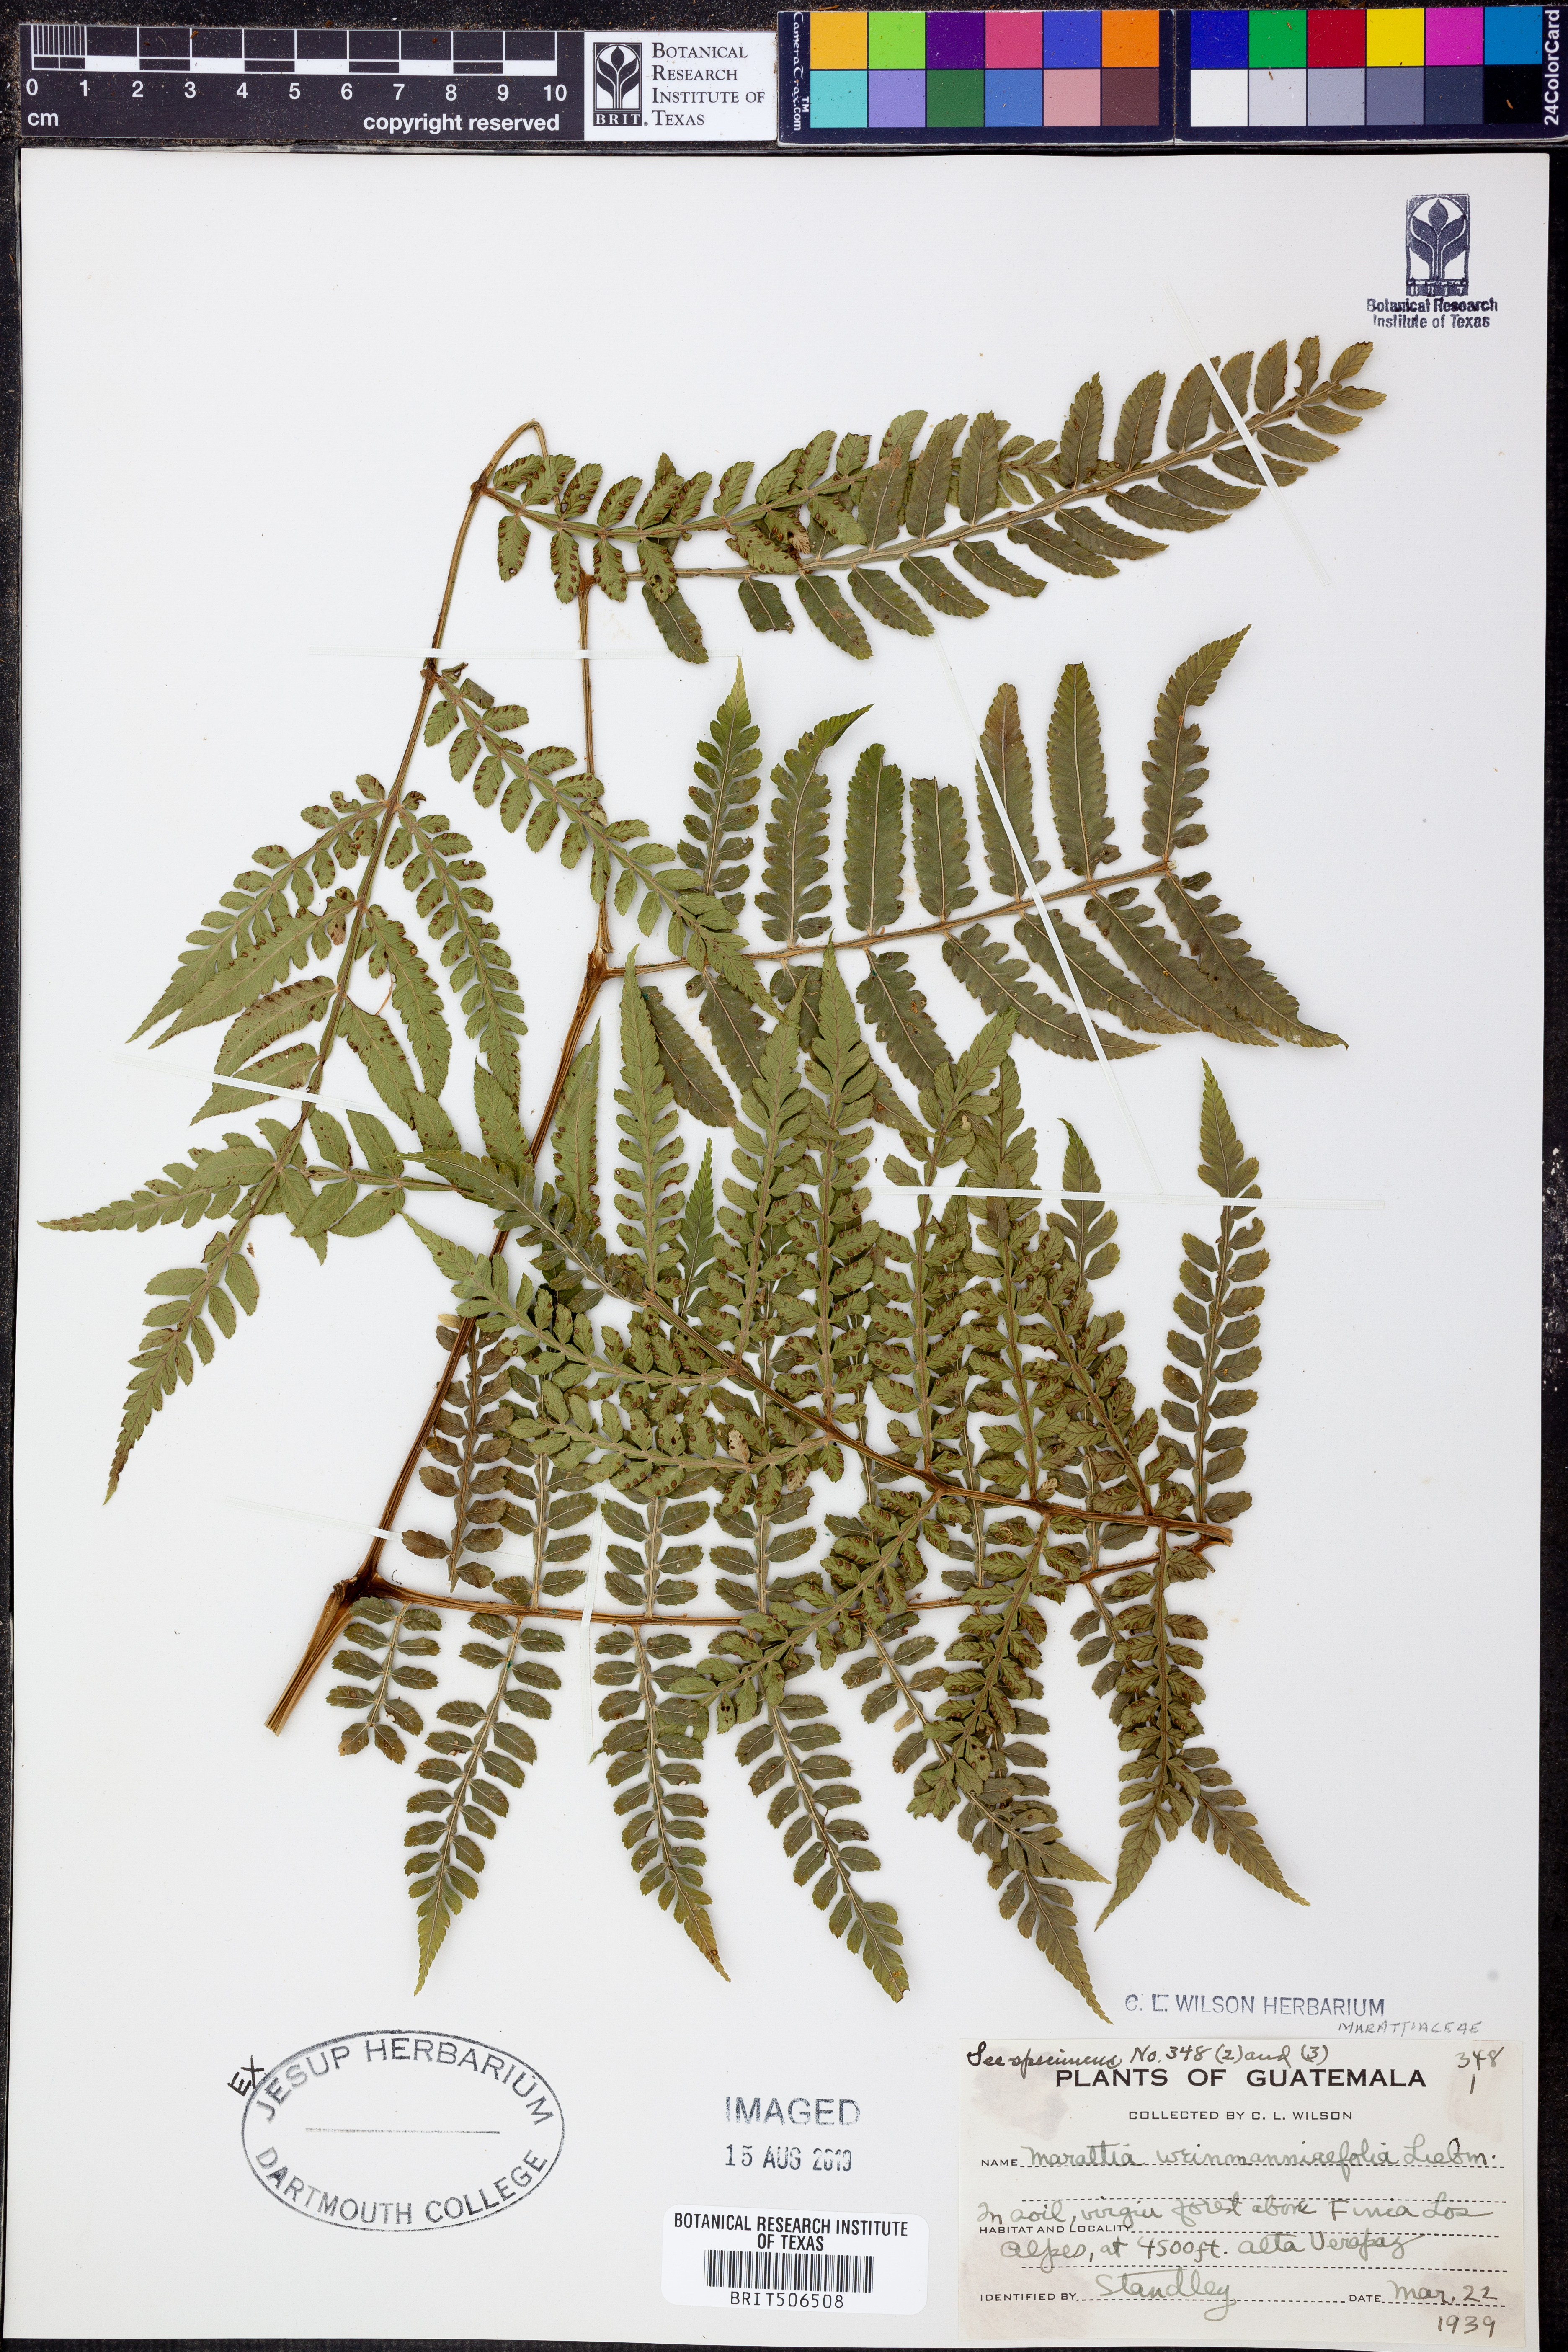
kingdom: Plantae
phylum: Tracheophyta
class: Polypodiopsida
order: Marattiales
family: Marattiaceae
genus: Marattia
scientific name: Marattia weinmanniifolia
